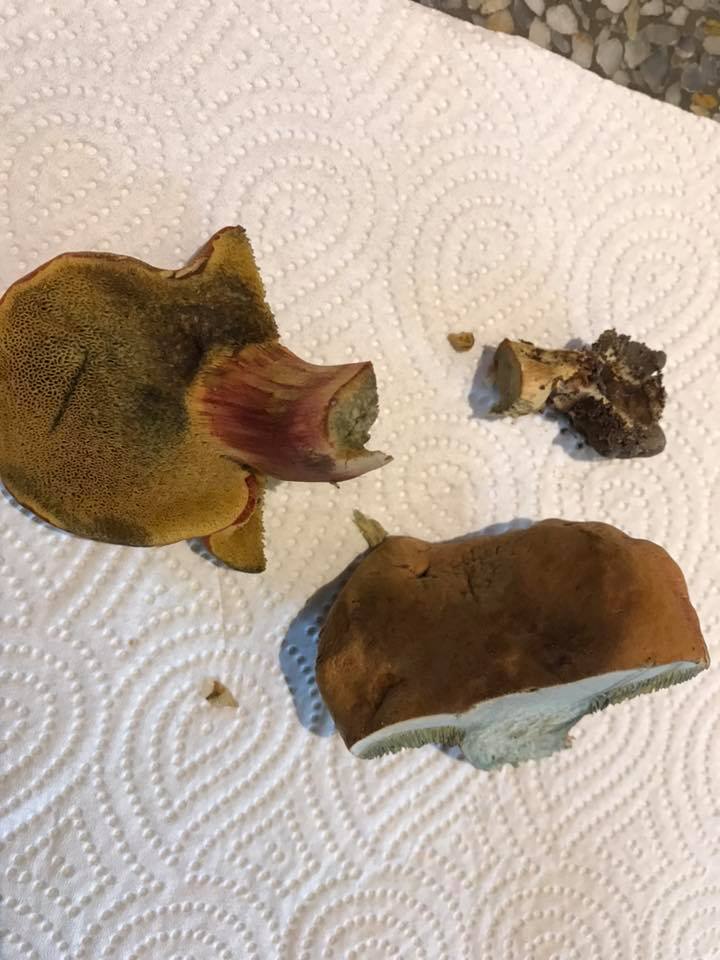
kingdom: Fungi
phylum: Basidiomycota
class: Agaricomycetes
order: Boletales
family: Boletaceae
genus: Hortiboletus
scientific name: Hortiboletus bubalinus
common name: aurora-rørhat
